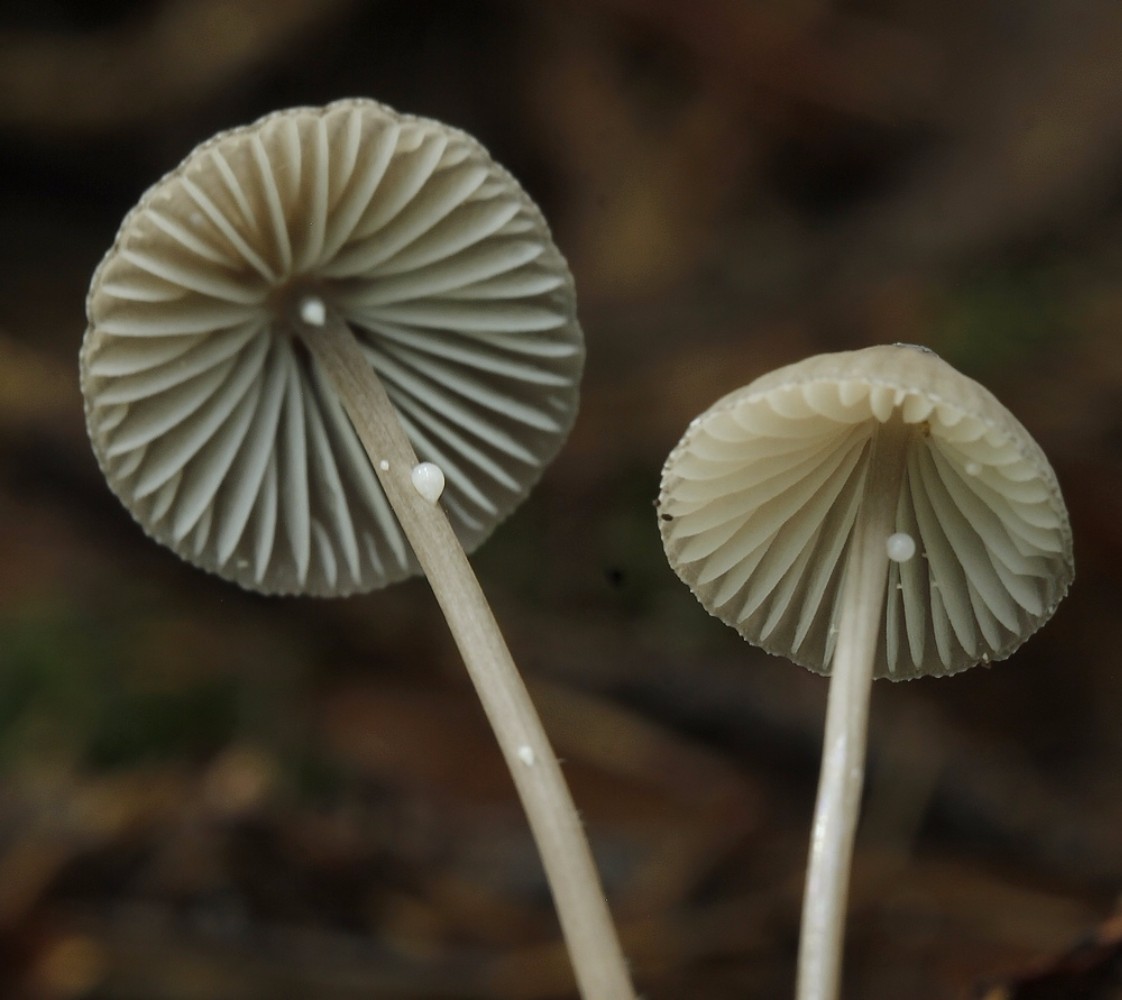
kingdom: Fungi
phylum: Basidiomycota
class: Agaricomycetes
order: Agaricales
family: Mycenaceae
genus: Mycena
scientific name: Mycena galopus
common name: hvidmælket huesvamp
